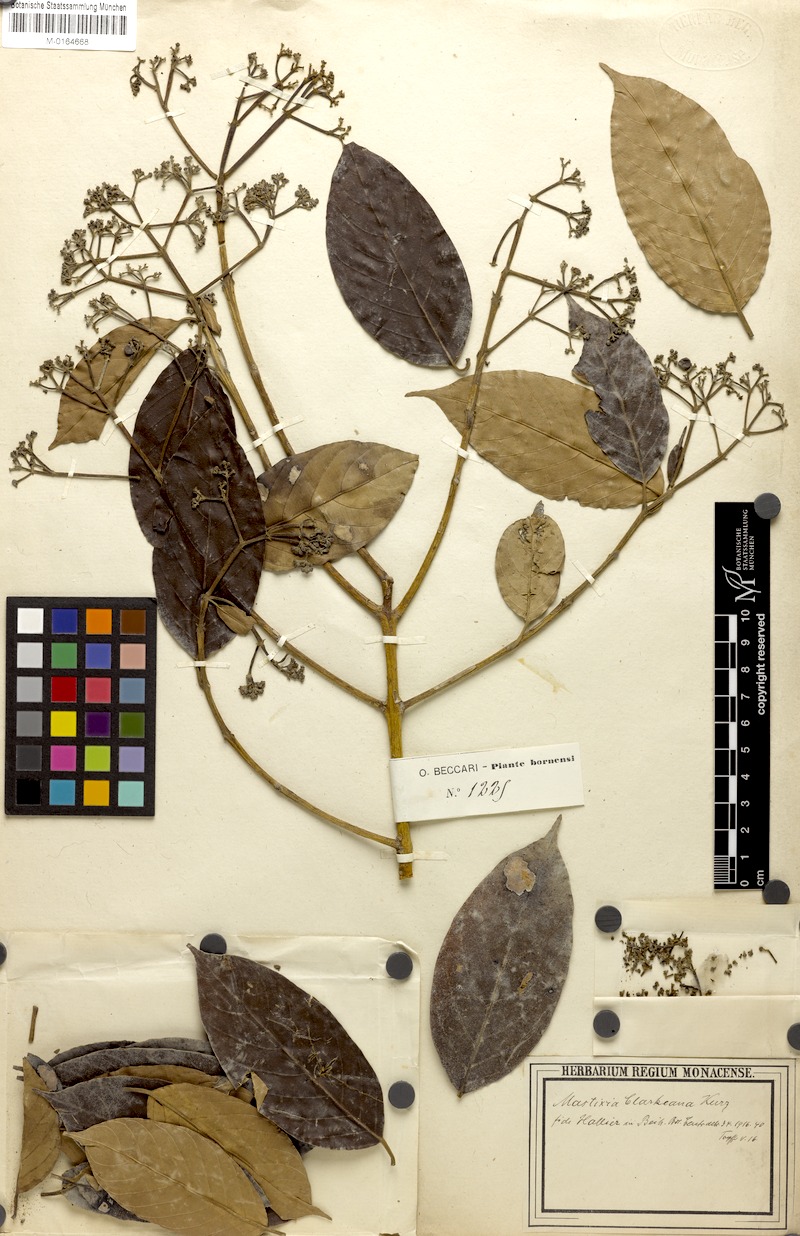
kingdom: Plantae
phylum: Tracheophyta
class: Magnoliopsida
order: Cornales
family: Nyssaceae
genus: Mastixia
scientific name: Mastixia trichotoma
